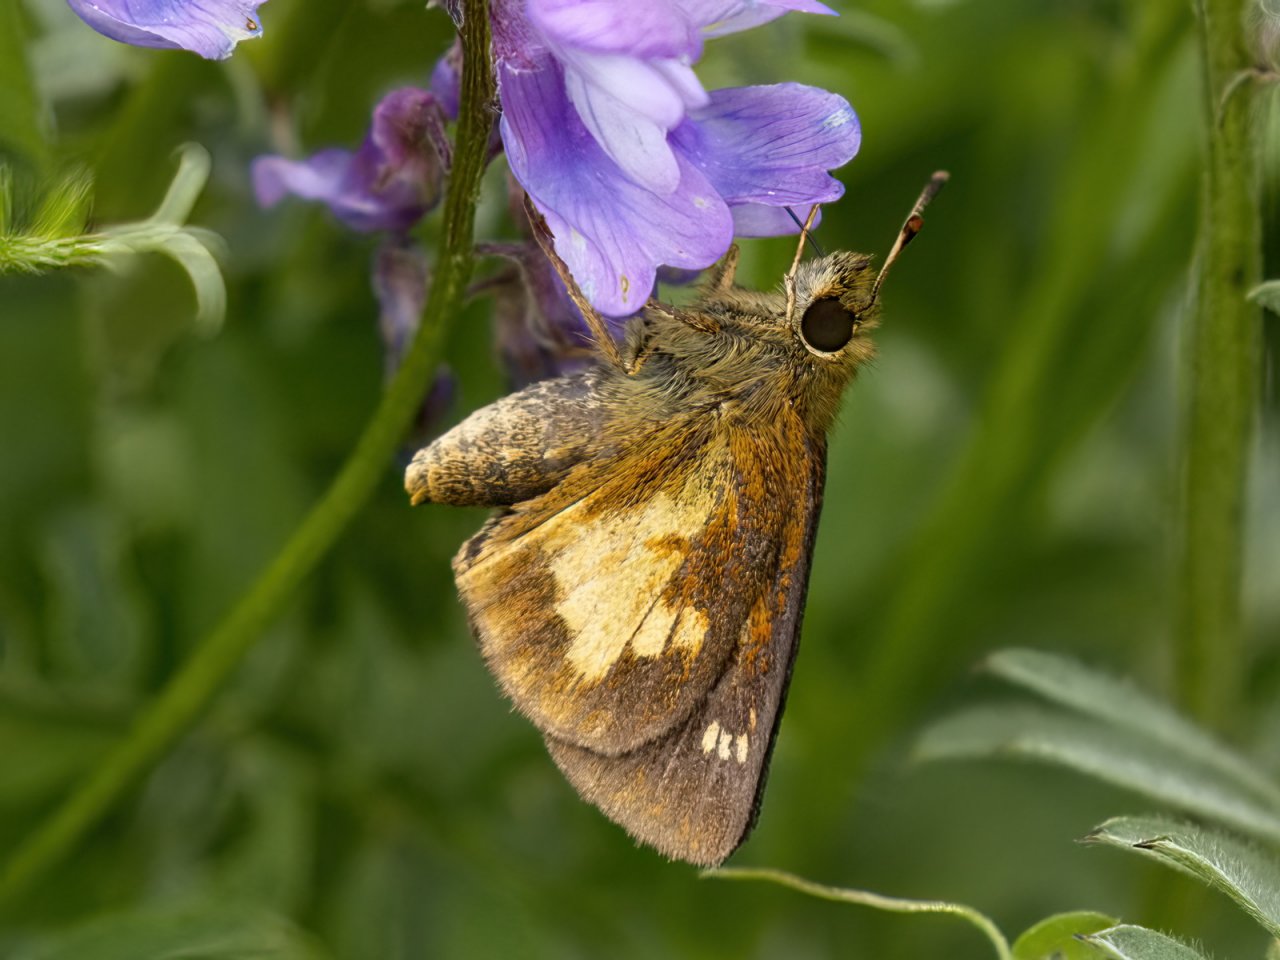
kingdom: Animalia
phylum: Arthropoda
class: Insecta
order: Lepidoptera
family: Hesperiidae
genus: Poanes
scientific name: Poanes massasoit
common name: Mulberry Wing
